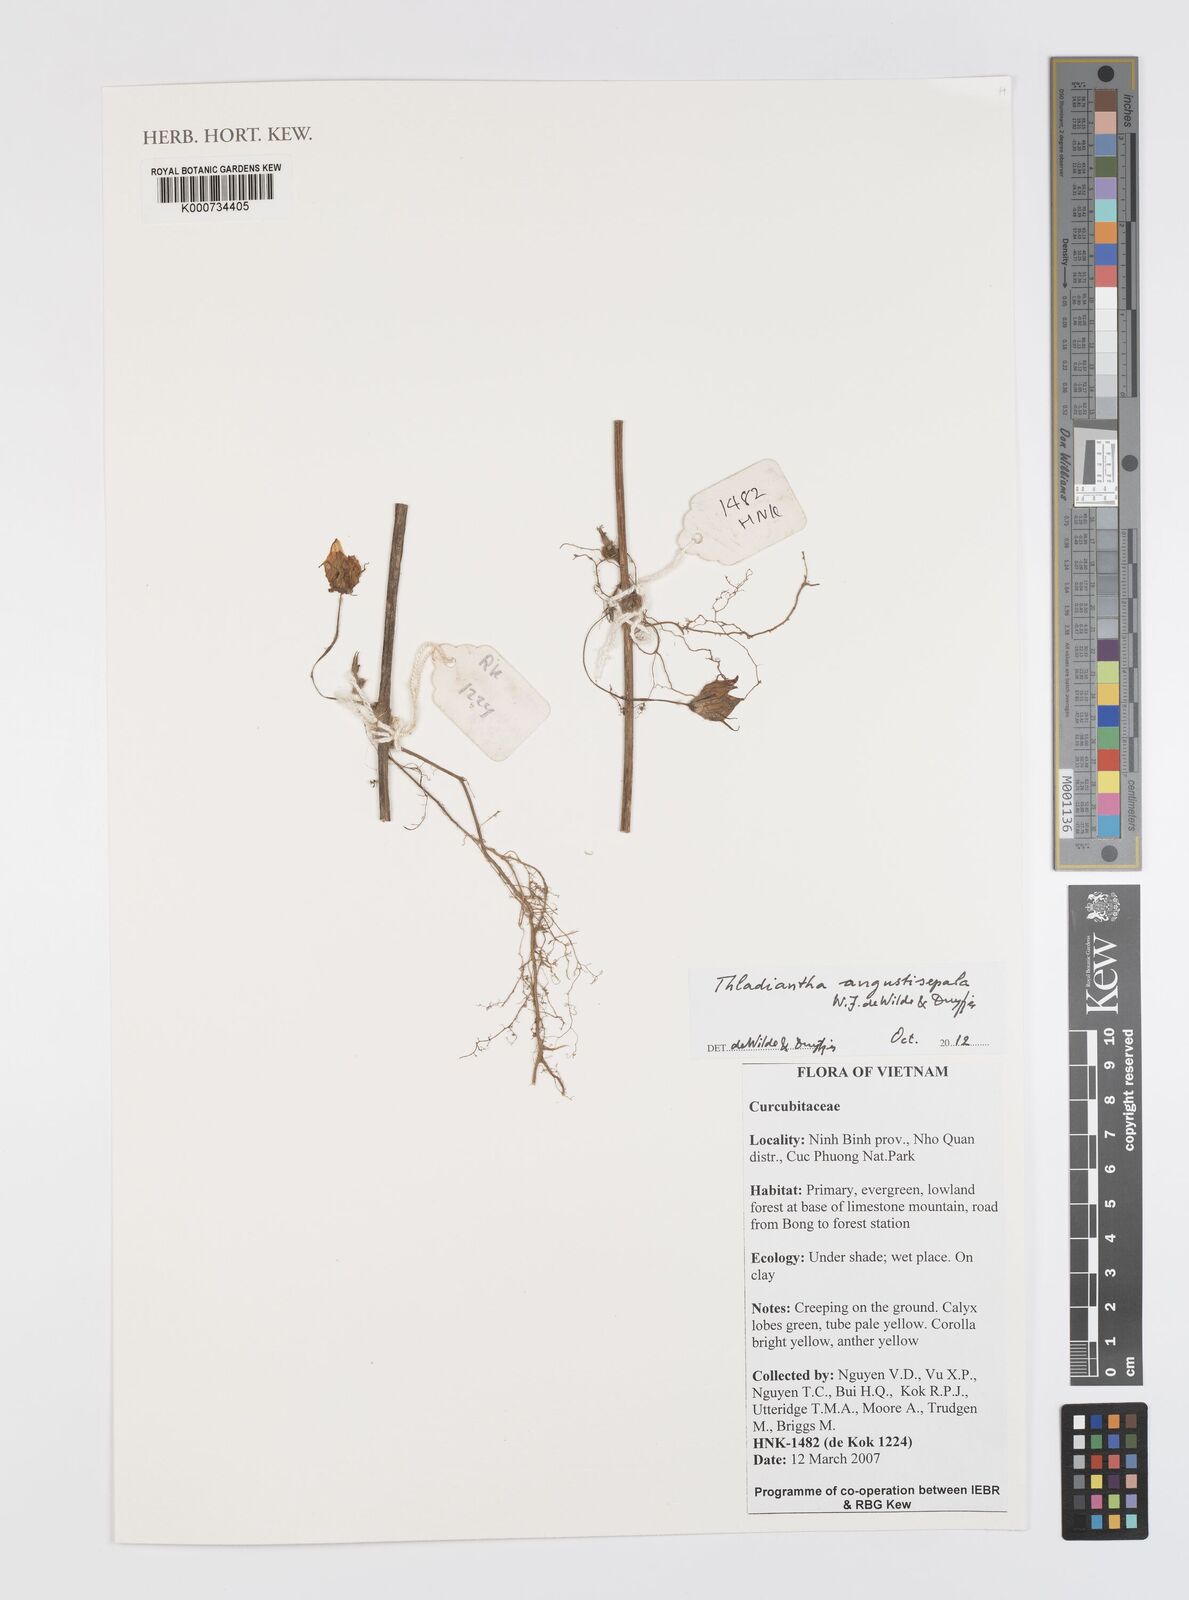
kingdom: Plantae
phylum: Tracheophyta
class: Magnoliopsida
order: Cucurbitales
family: Cucurbitaceae
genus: Thladiantha
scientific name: Thladiantha angustisepala
